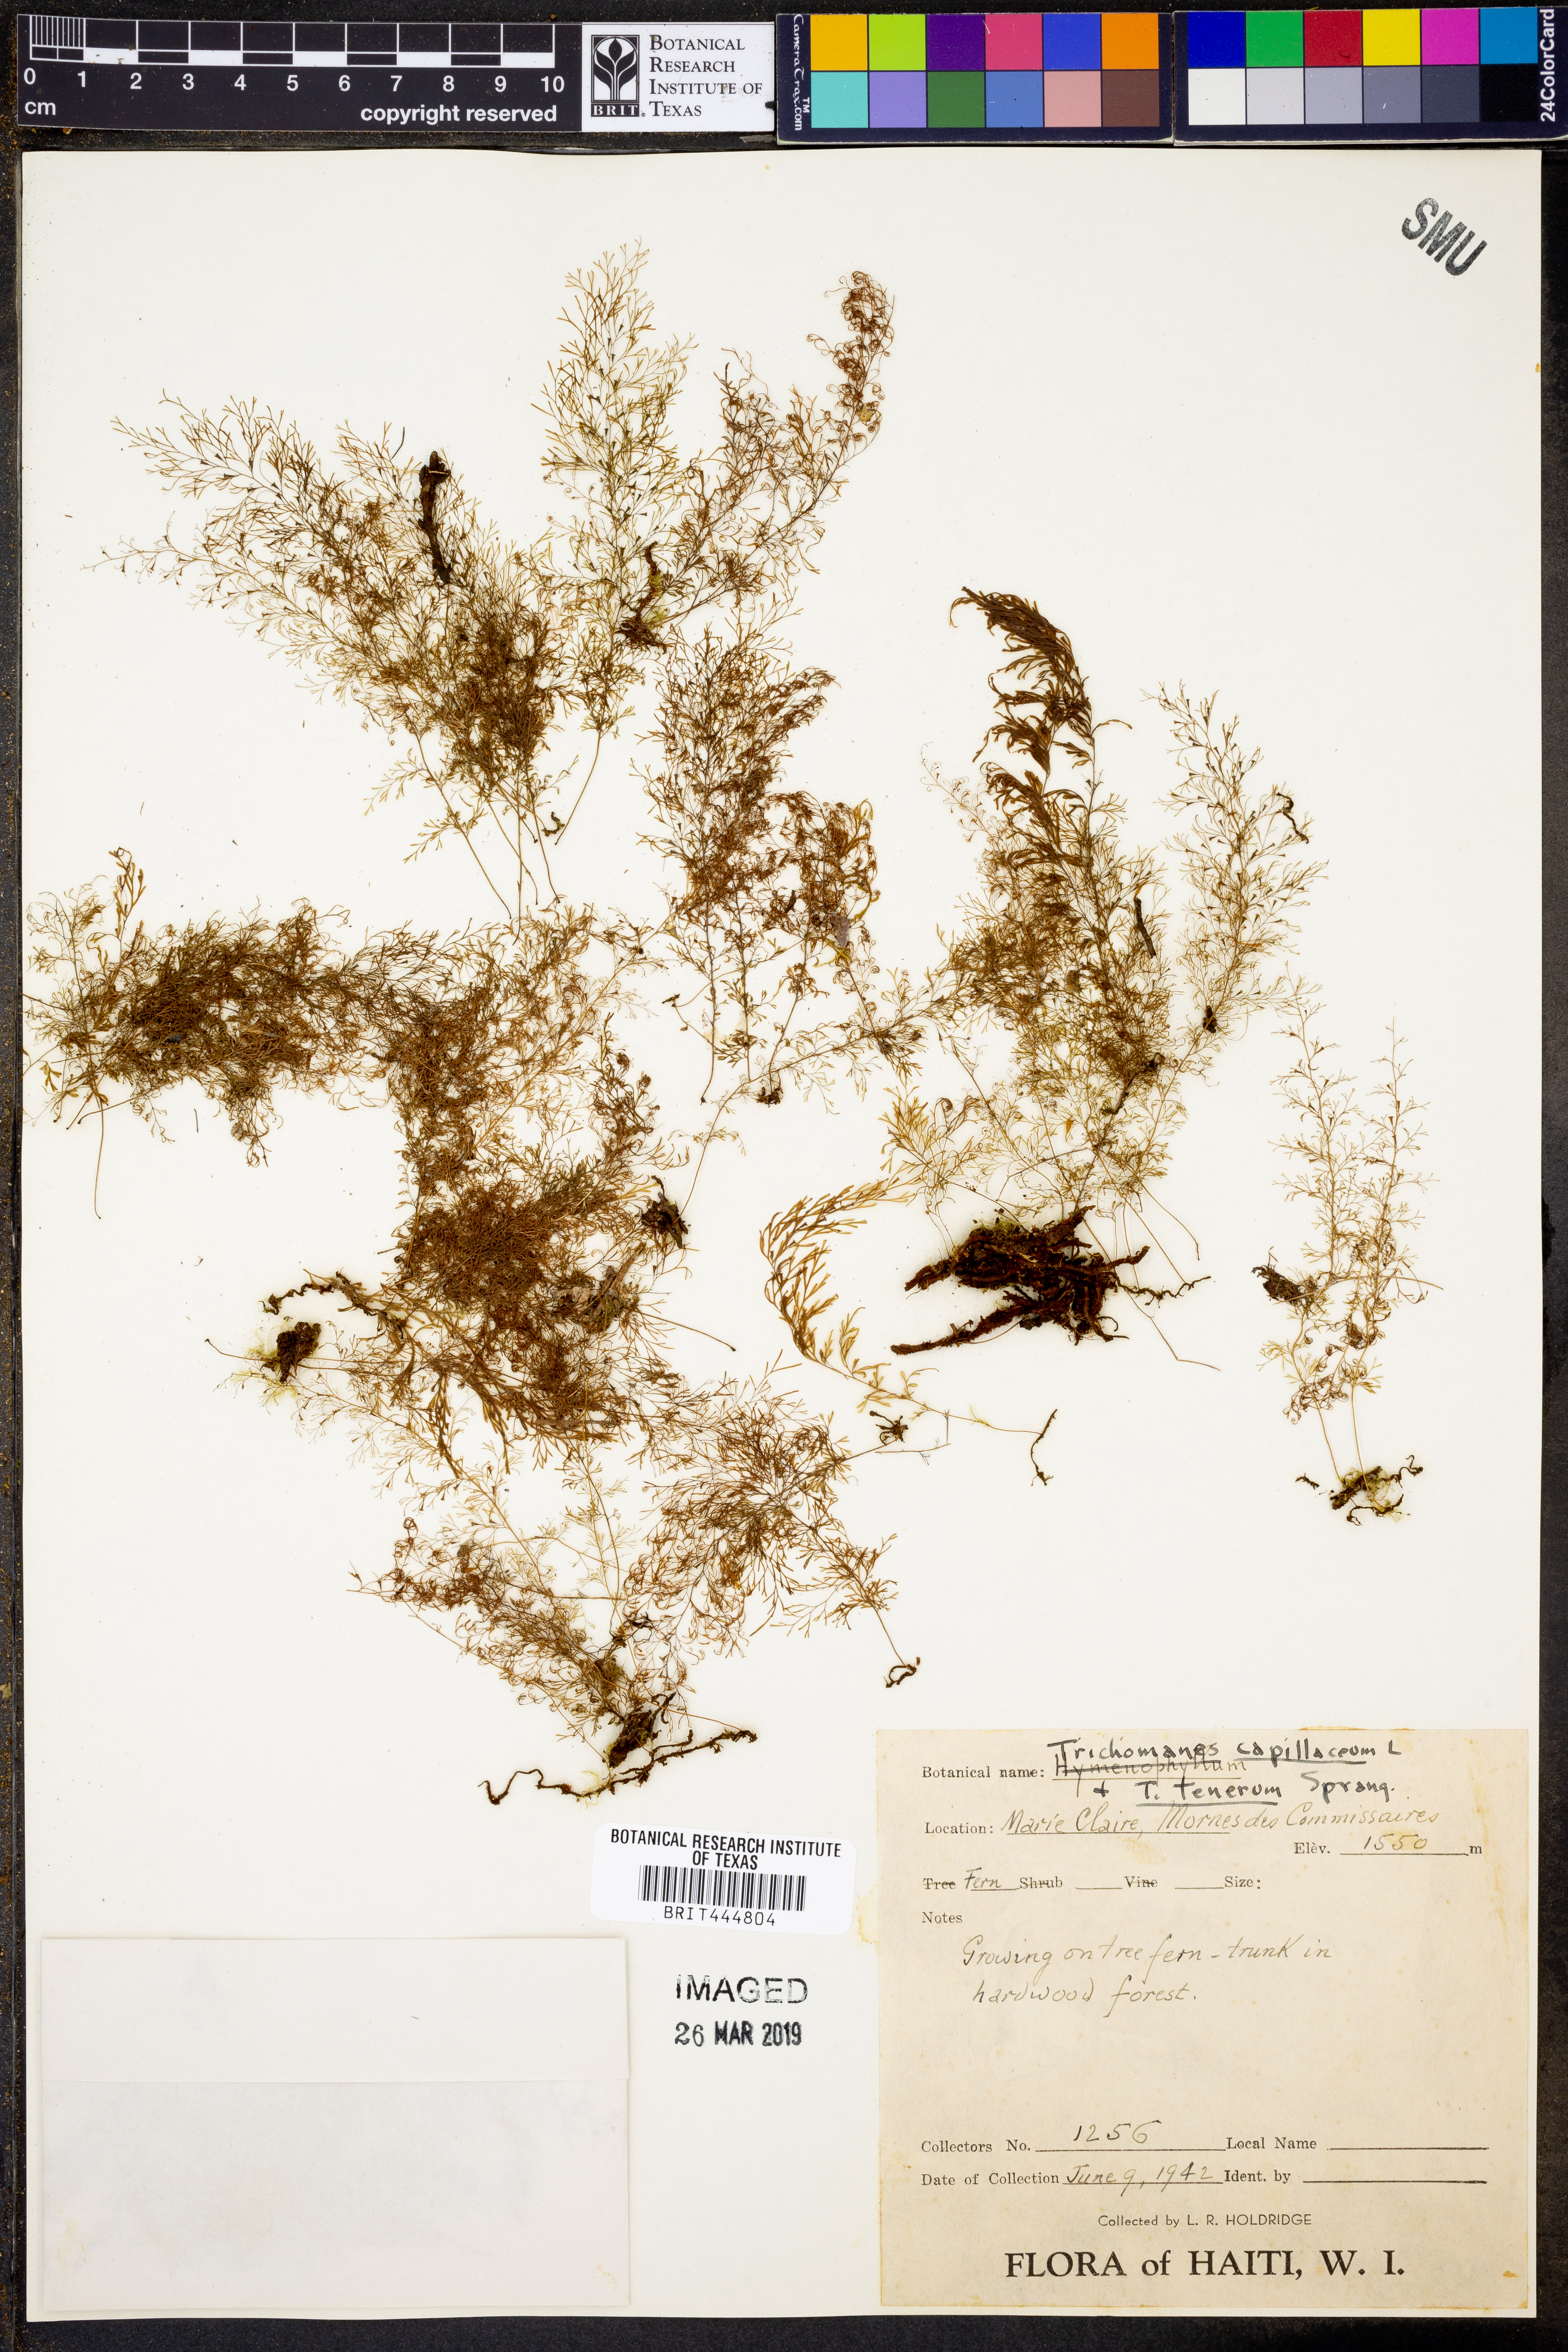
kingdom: Plantae
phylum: Tracheophyta
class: Polypodiopsida
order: Hymenophyllales
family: Hymenophyllaceae
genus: Polyphlebium
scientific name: Polyphlebium capillaceum
